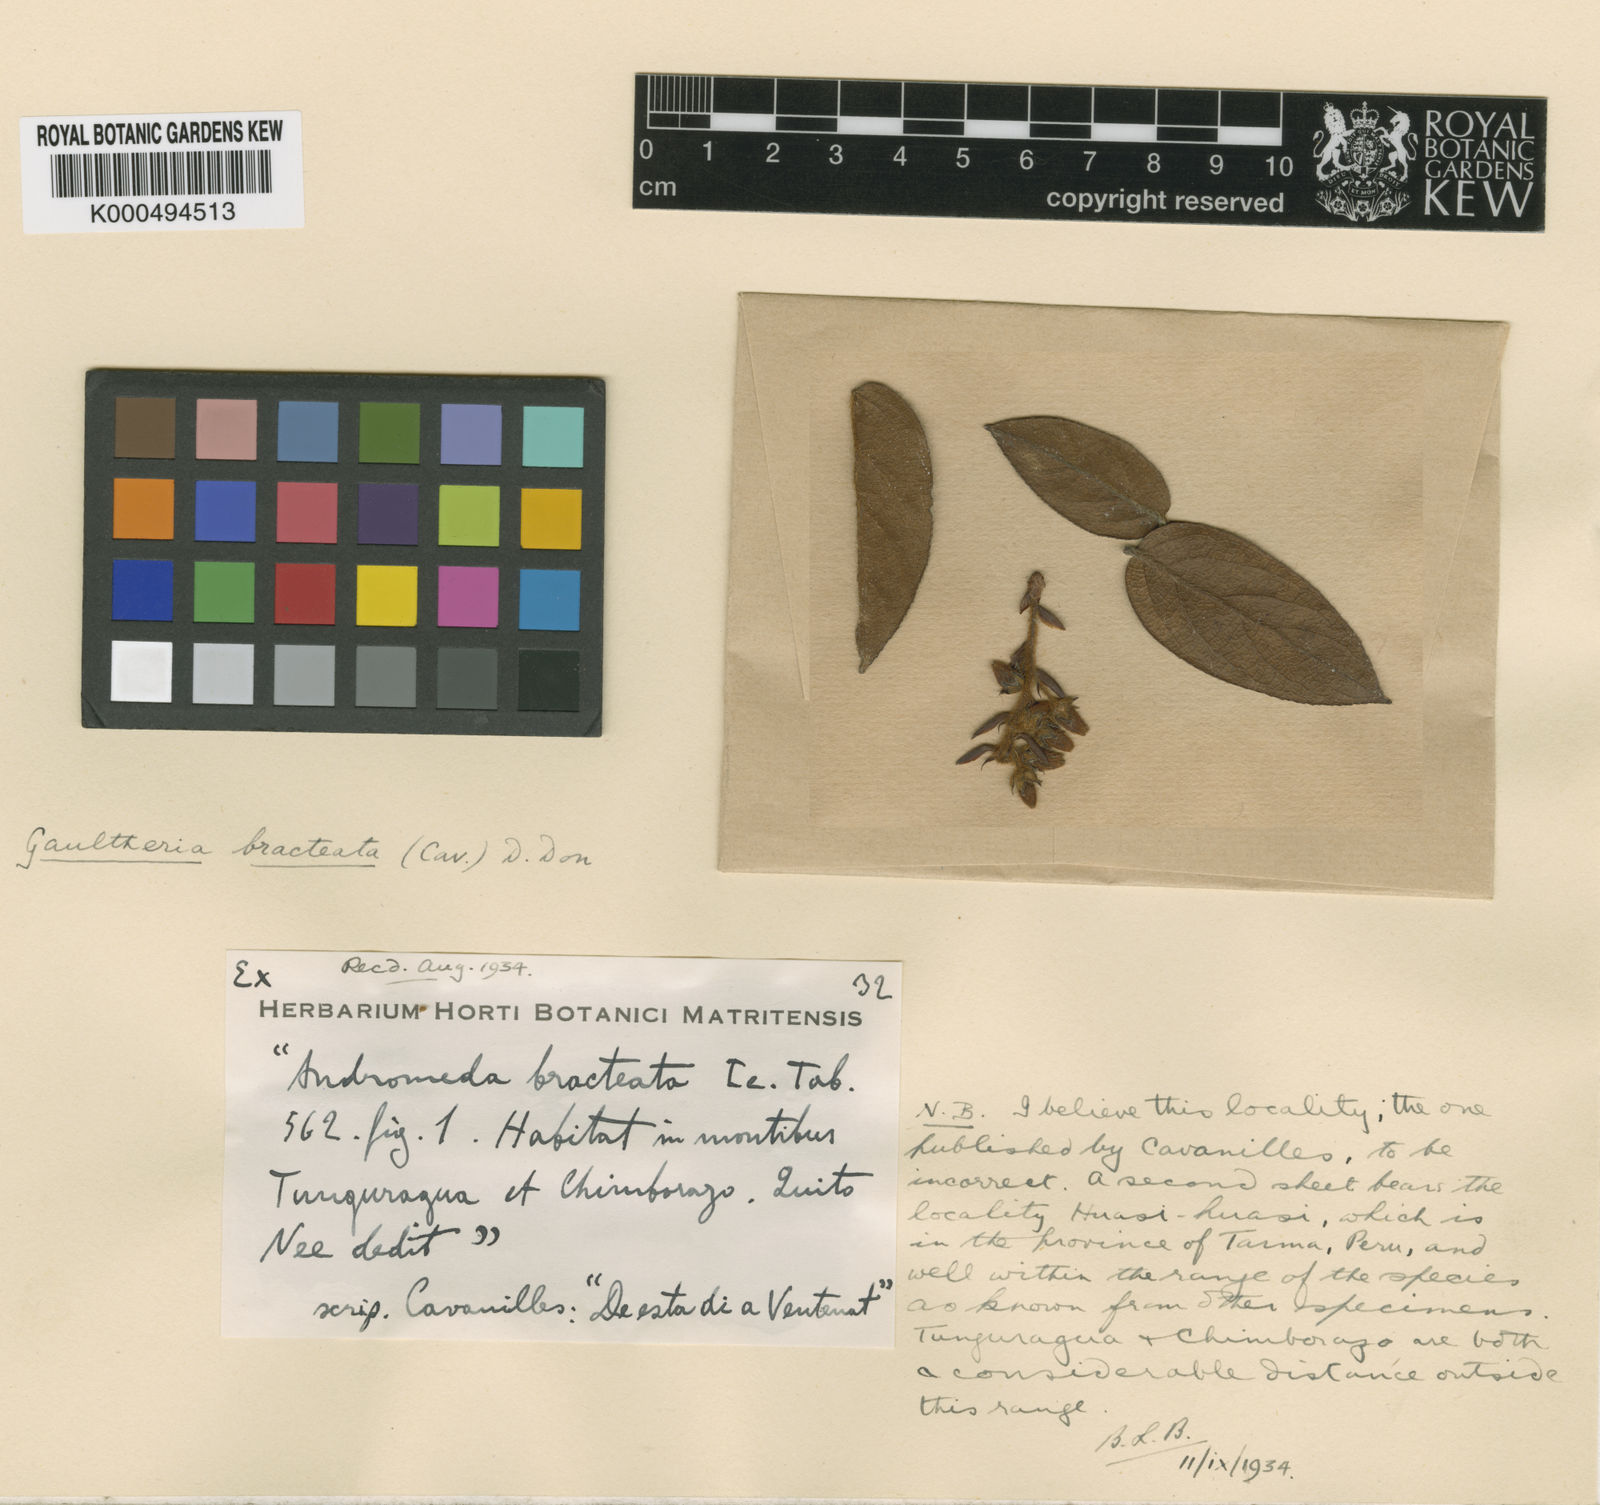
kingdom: Plantae
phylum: Tracheophyta
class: Magnoliopsida
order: Ericales
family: Ericaceae
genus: Gaultheria
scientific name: Gaultheria bracteata
